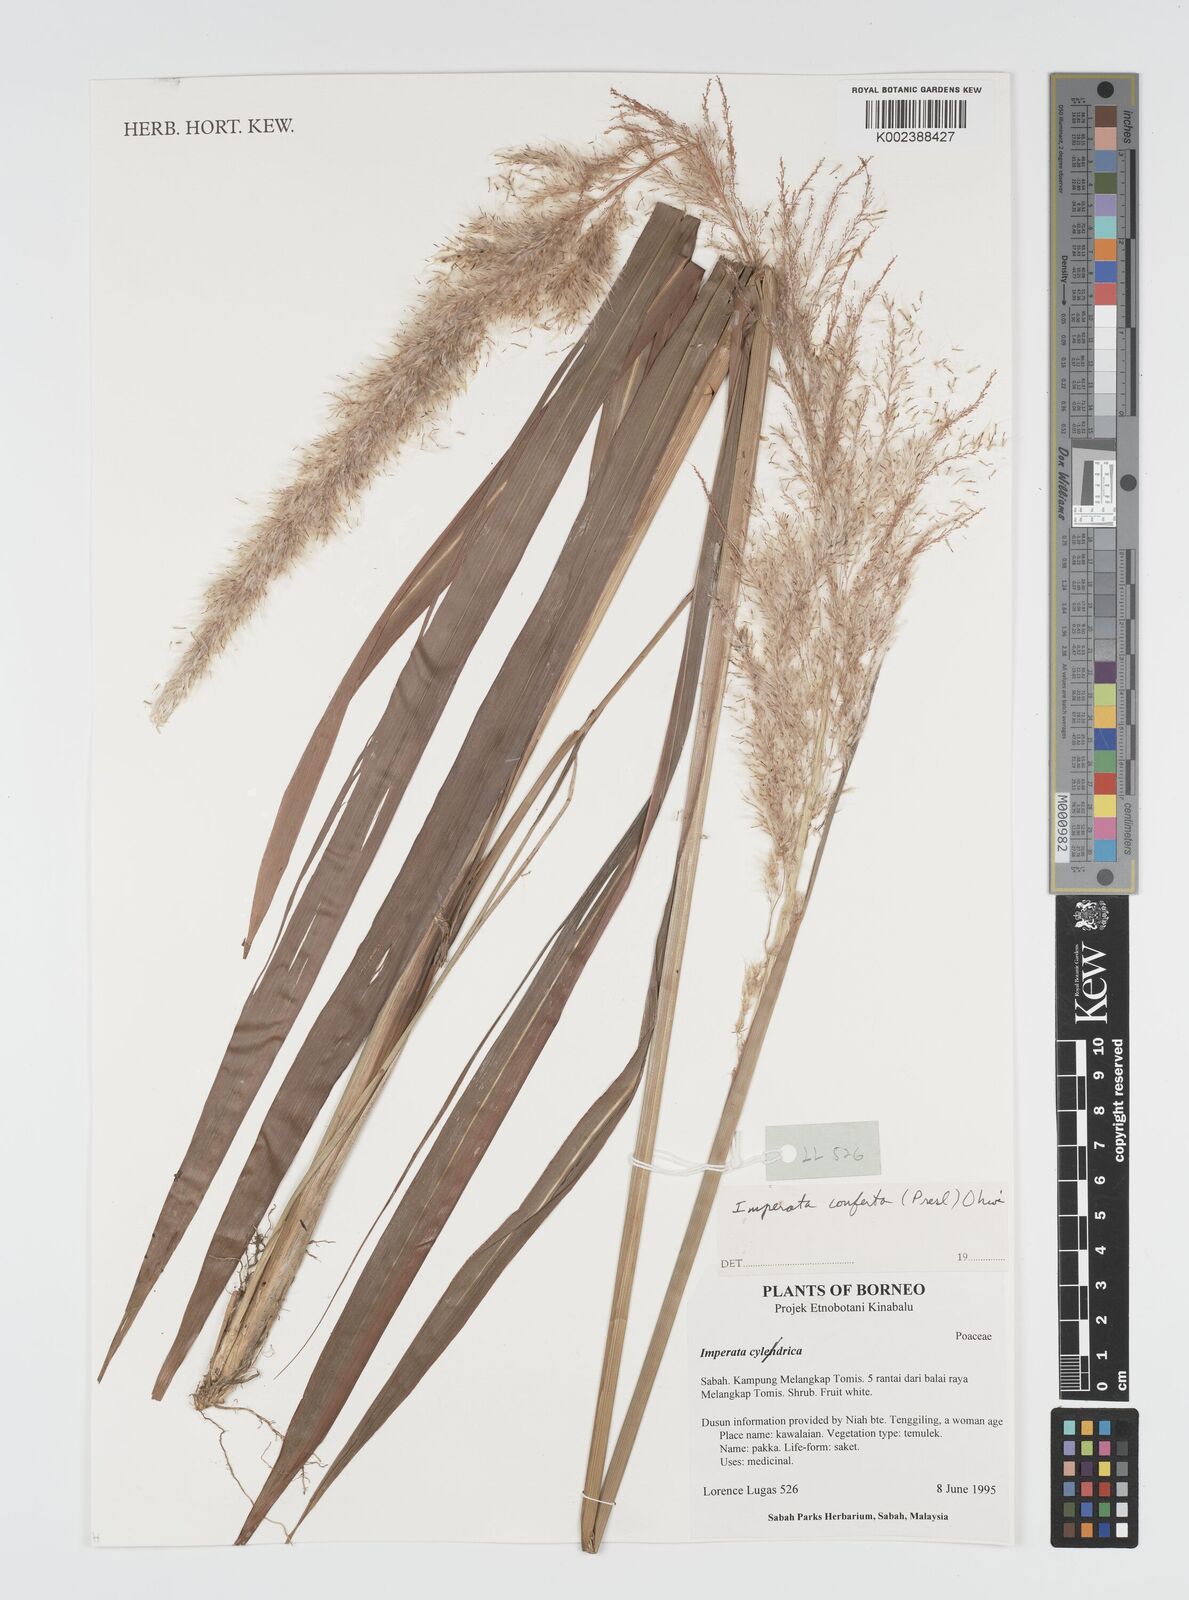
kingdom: Plantae
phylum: Tracheophyta
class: Liliopsida
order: Poales
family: Poaceae
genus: Imperata
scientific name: Imperata conferta
